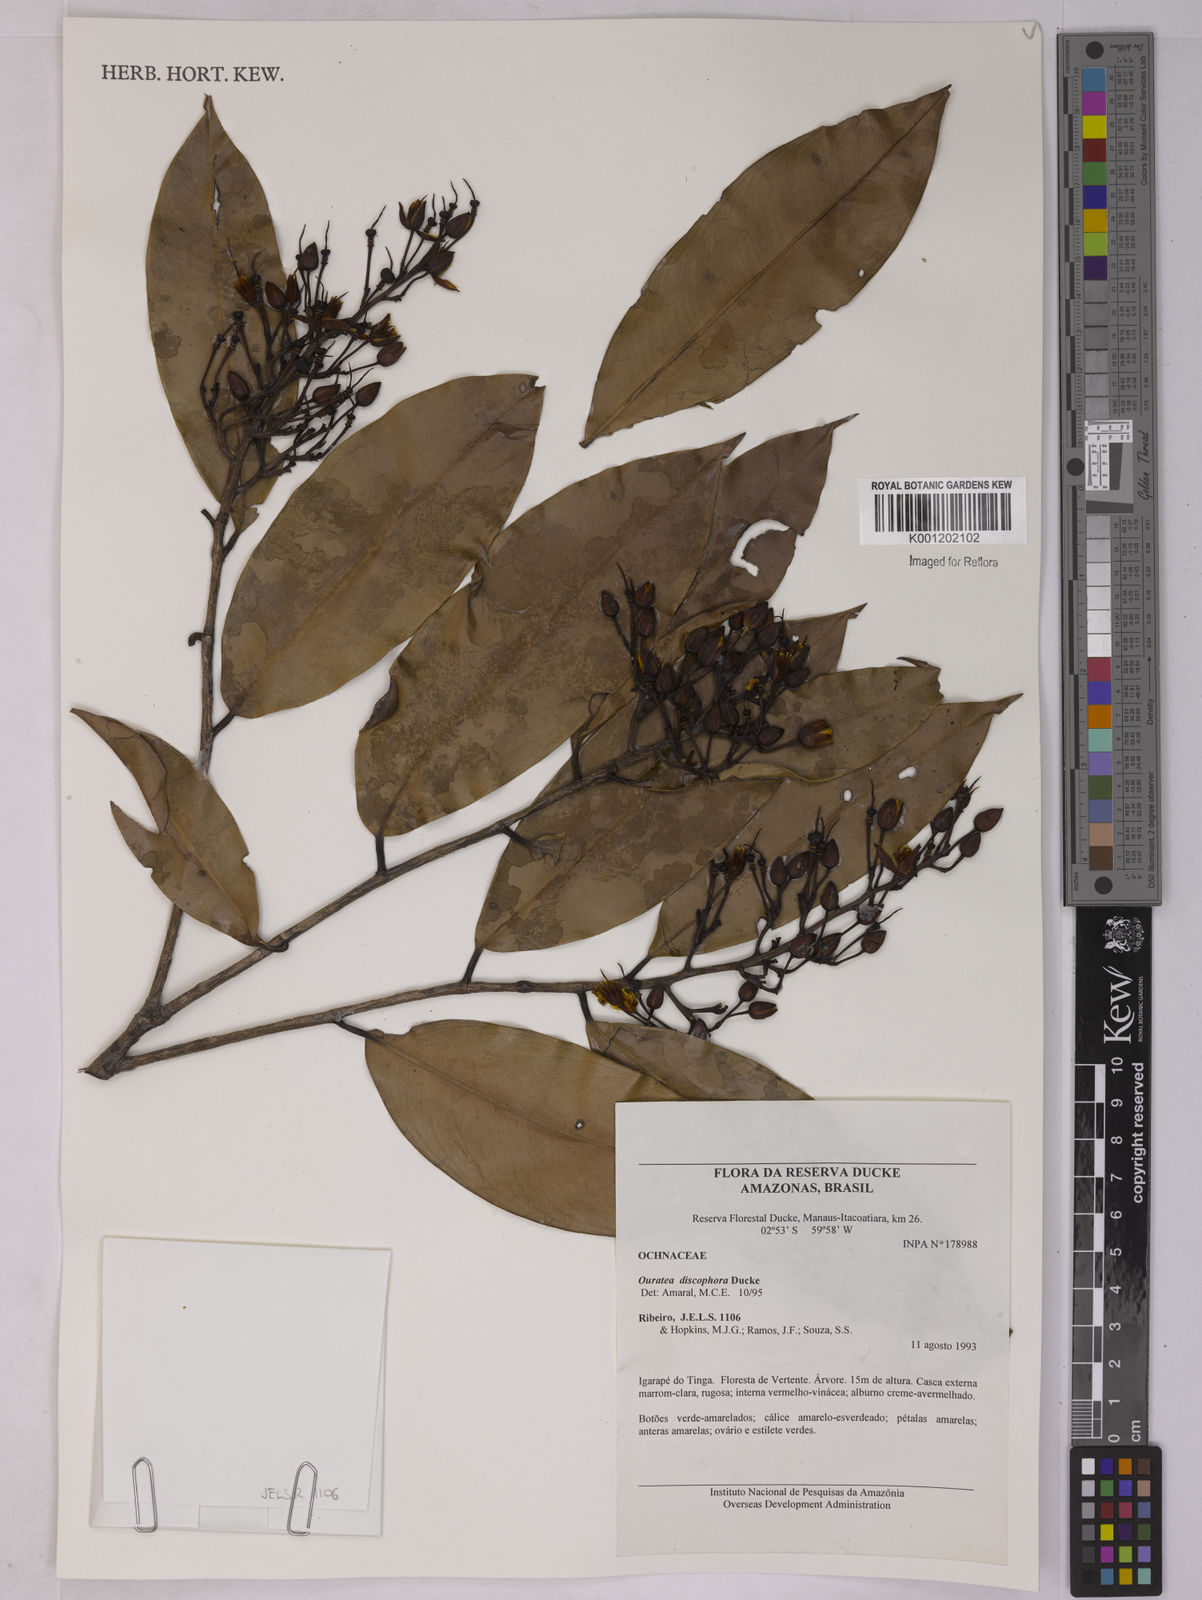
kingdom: Plantae
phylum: Tracheophyta
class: Magnoliopsida
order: Malpighiales
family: Ochnaceae
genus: Ouratea
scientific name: Ouratea discophora
